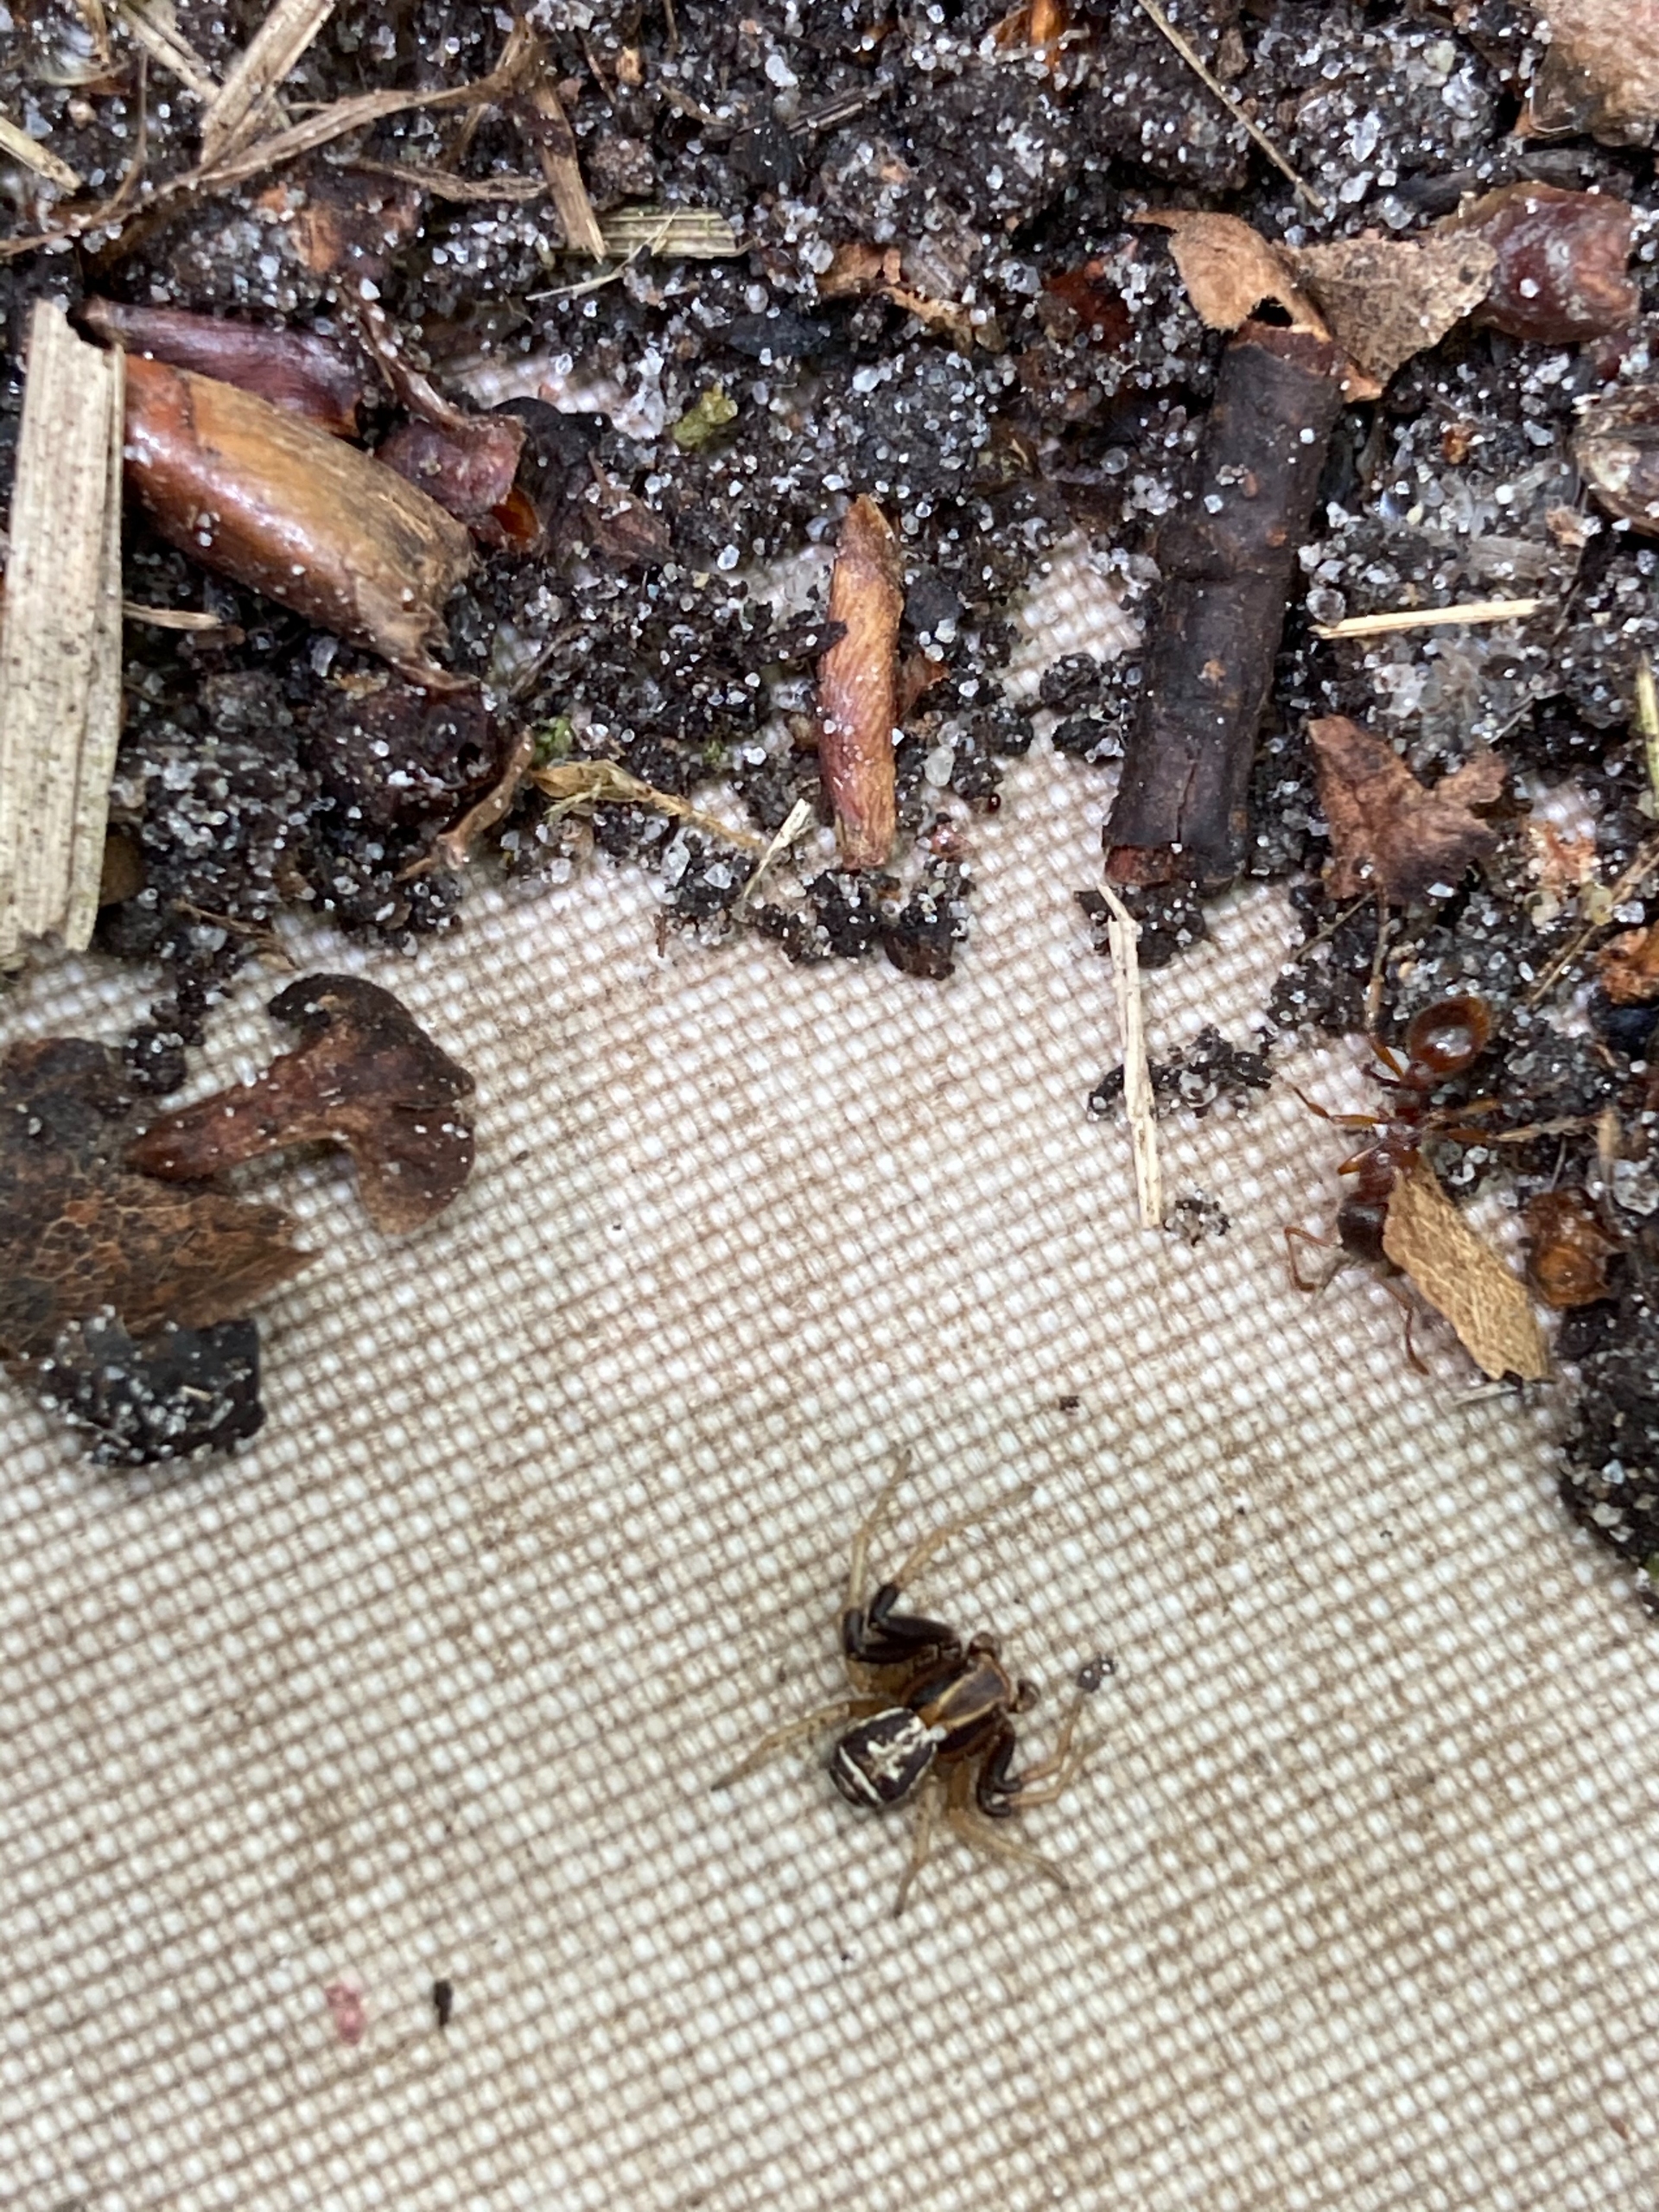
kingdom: Animalia
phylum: Arthropoda
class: Arachnida
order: Araneae
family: Thomisidae
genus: Xysticus
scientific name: Xysticus ulmi
